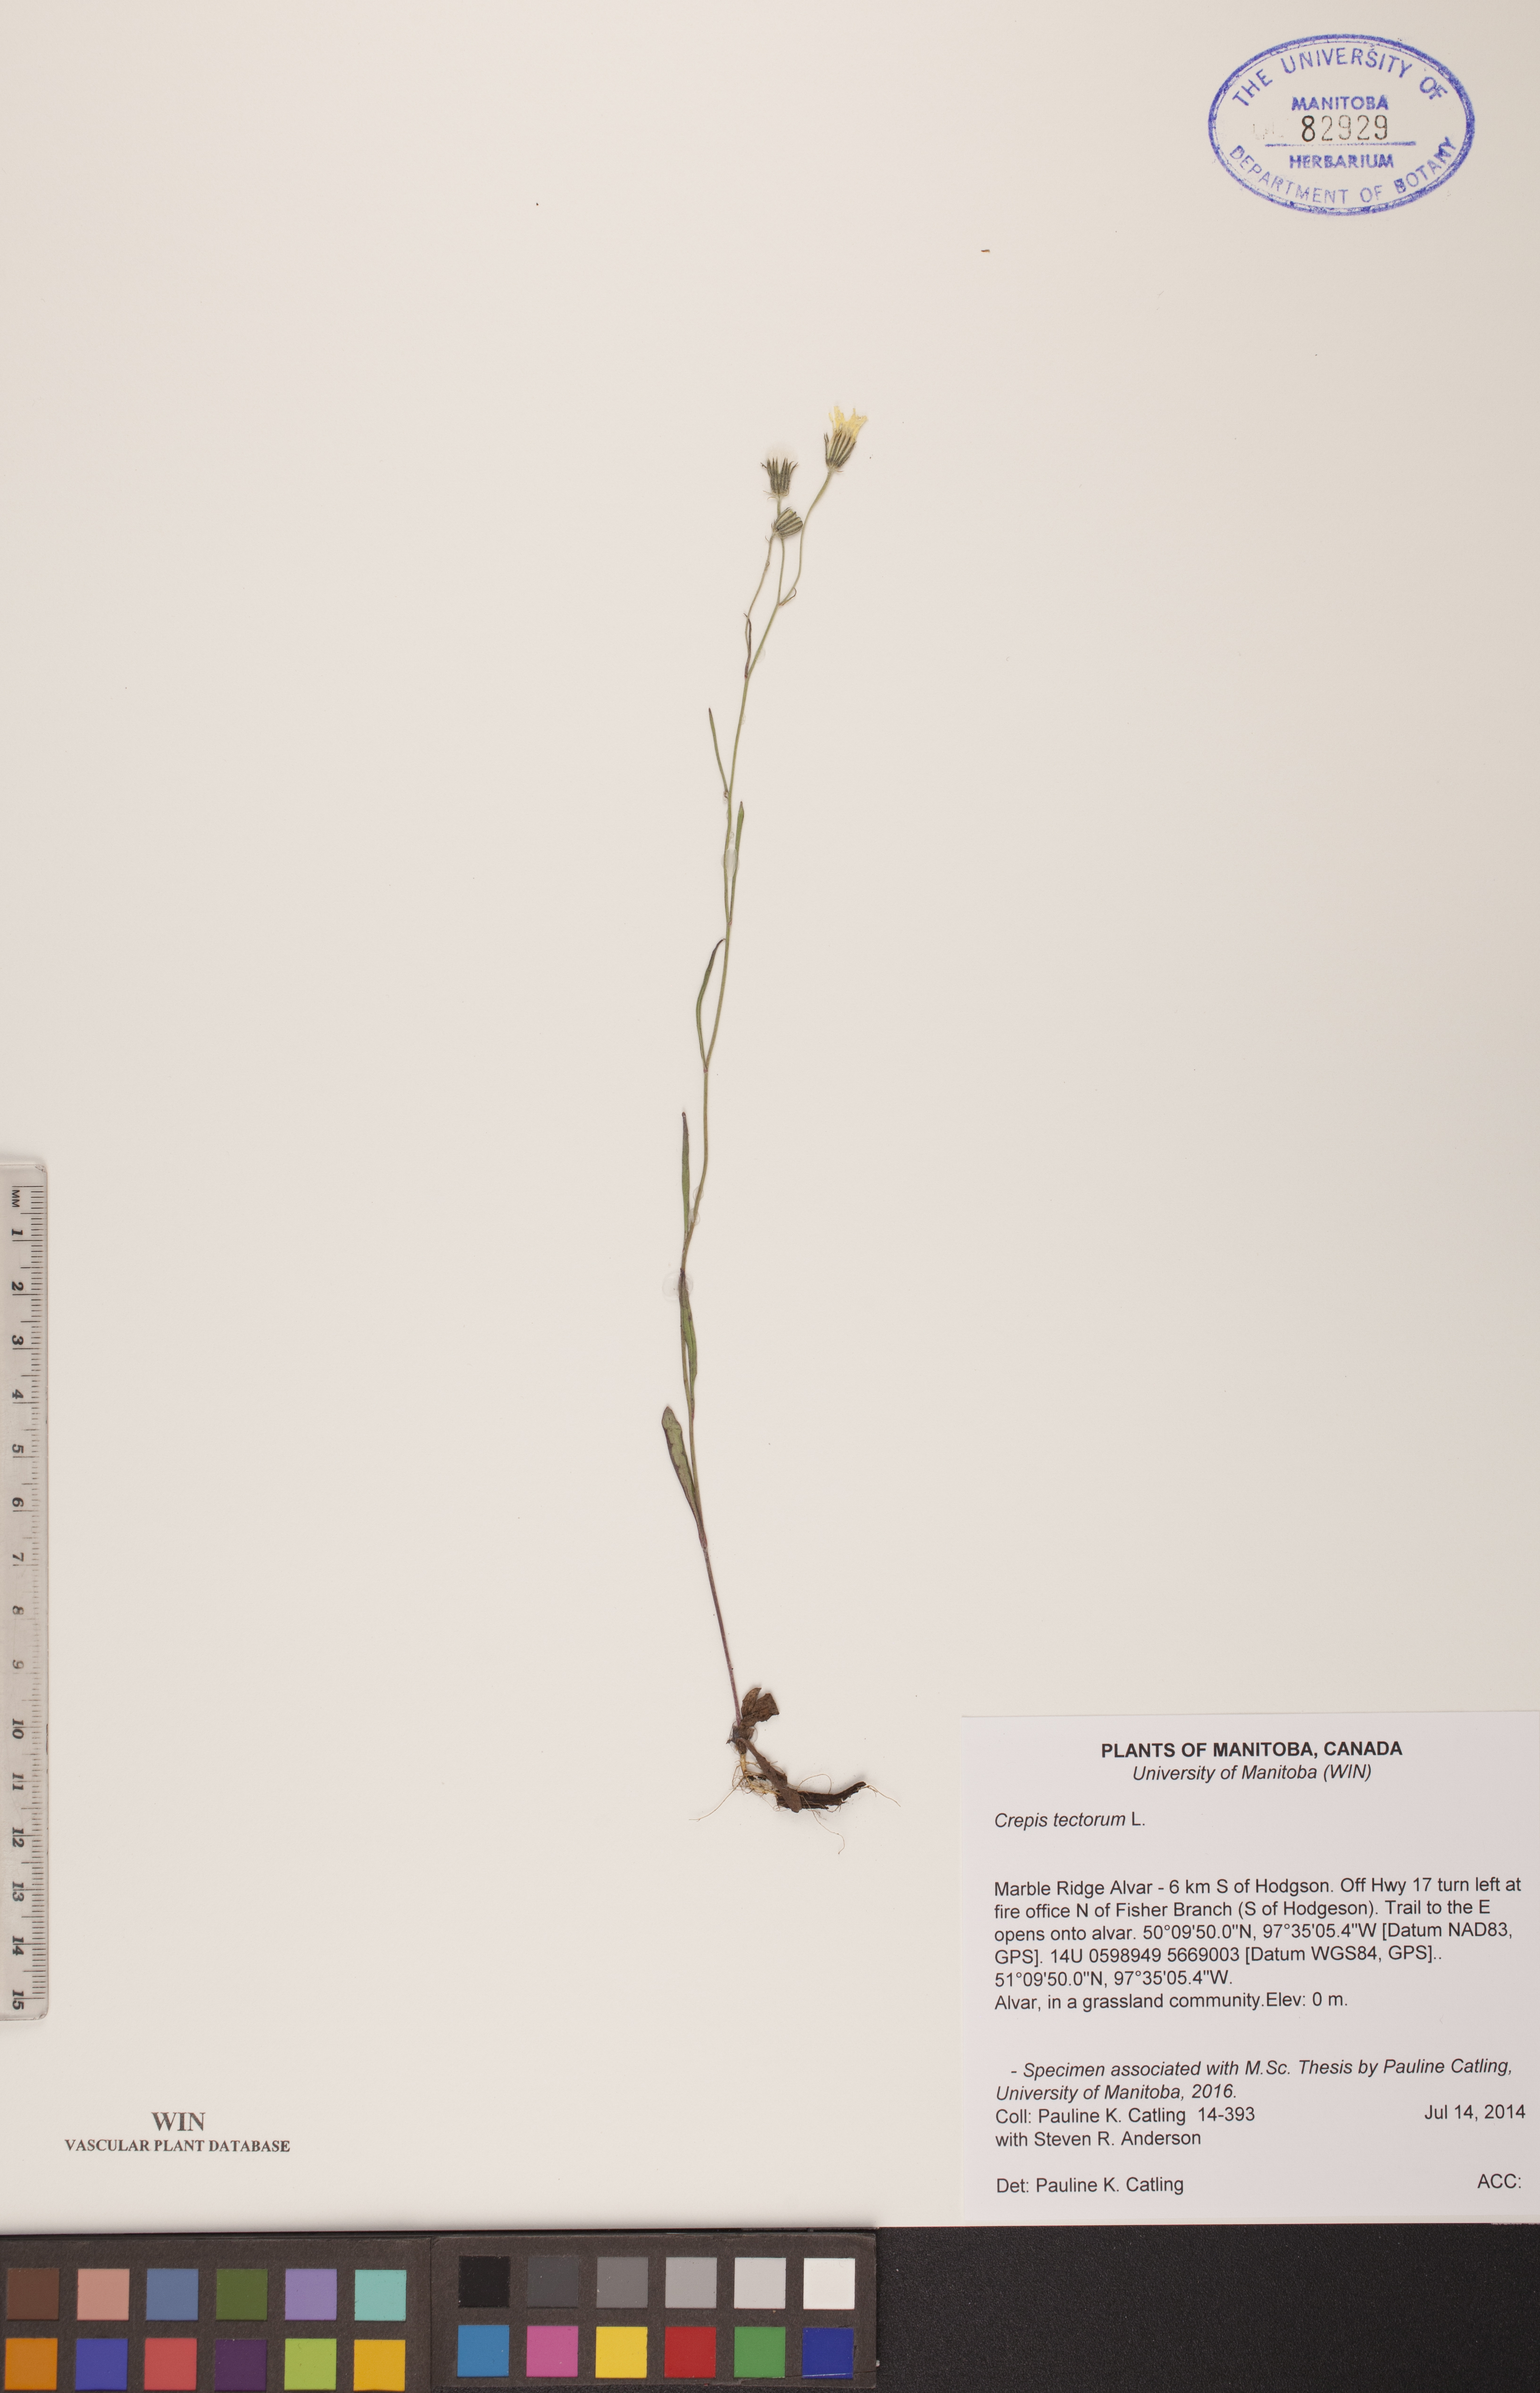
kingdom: Plantae
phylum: Tracheophyta
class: Magnoliopsida
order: Asterales
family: Asteraceae
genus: Crepis
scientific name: Crepis tectorum
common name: Narrow-leaved hawk's-beard
